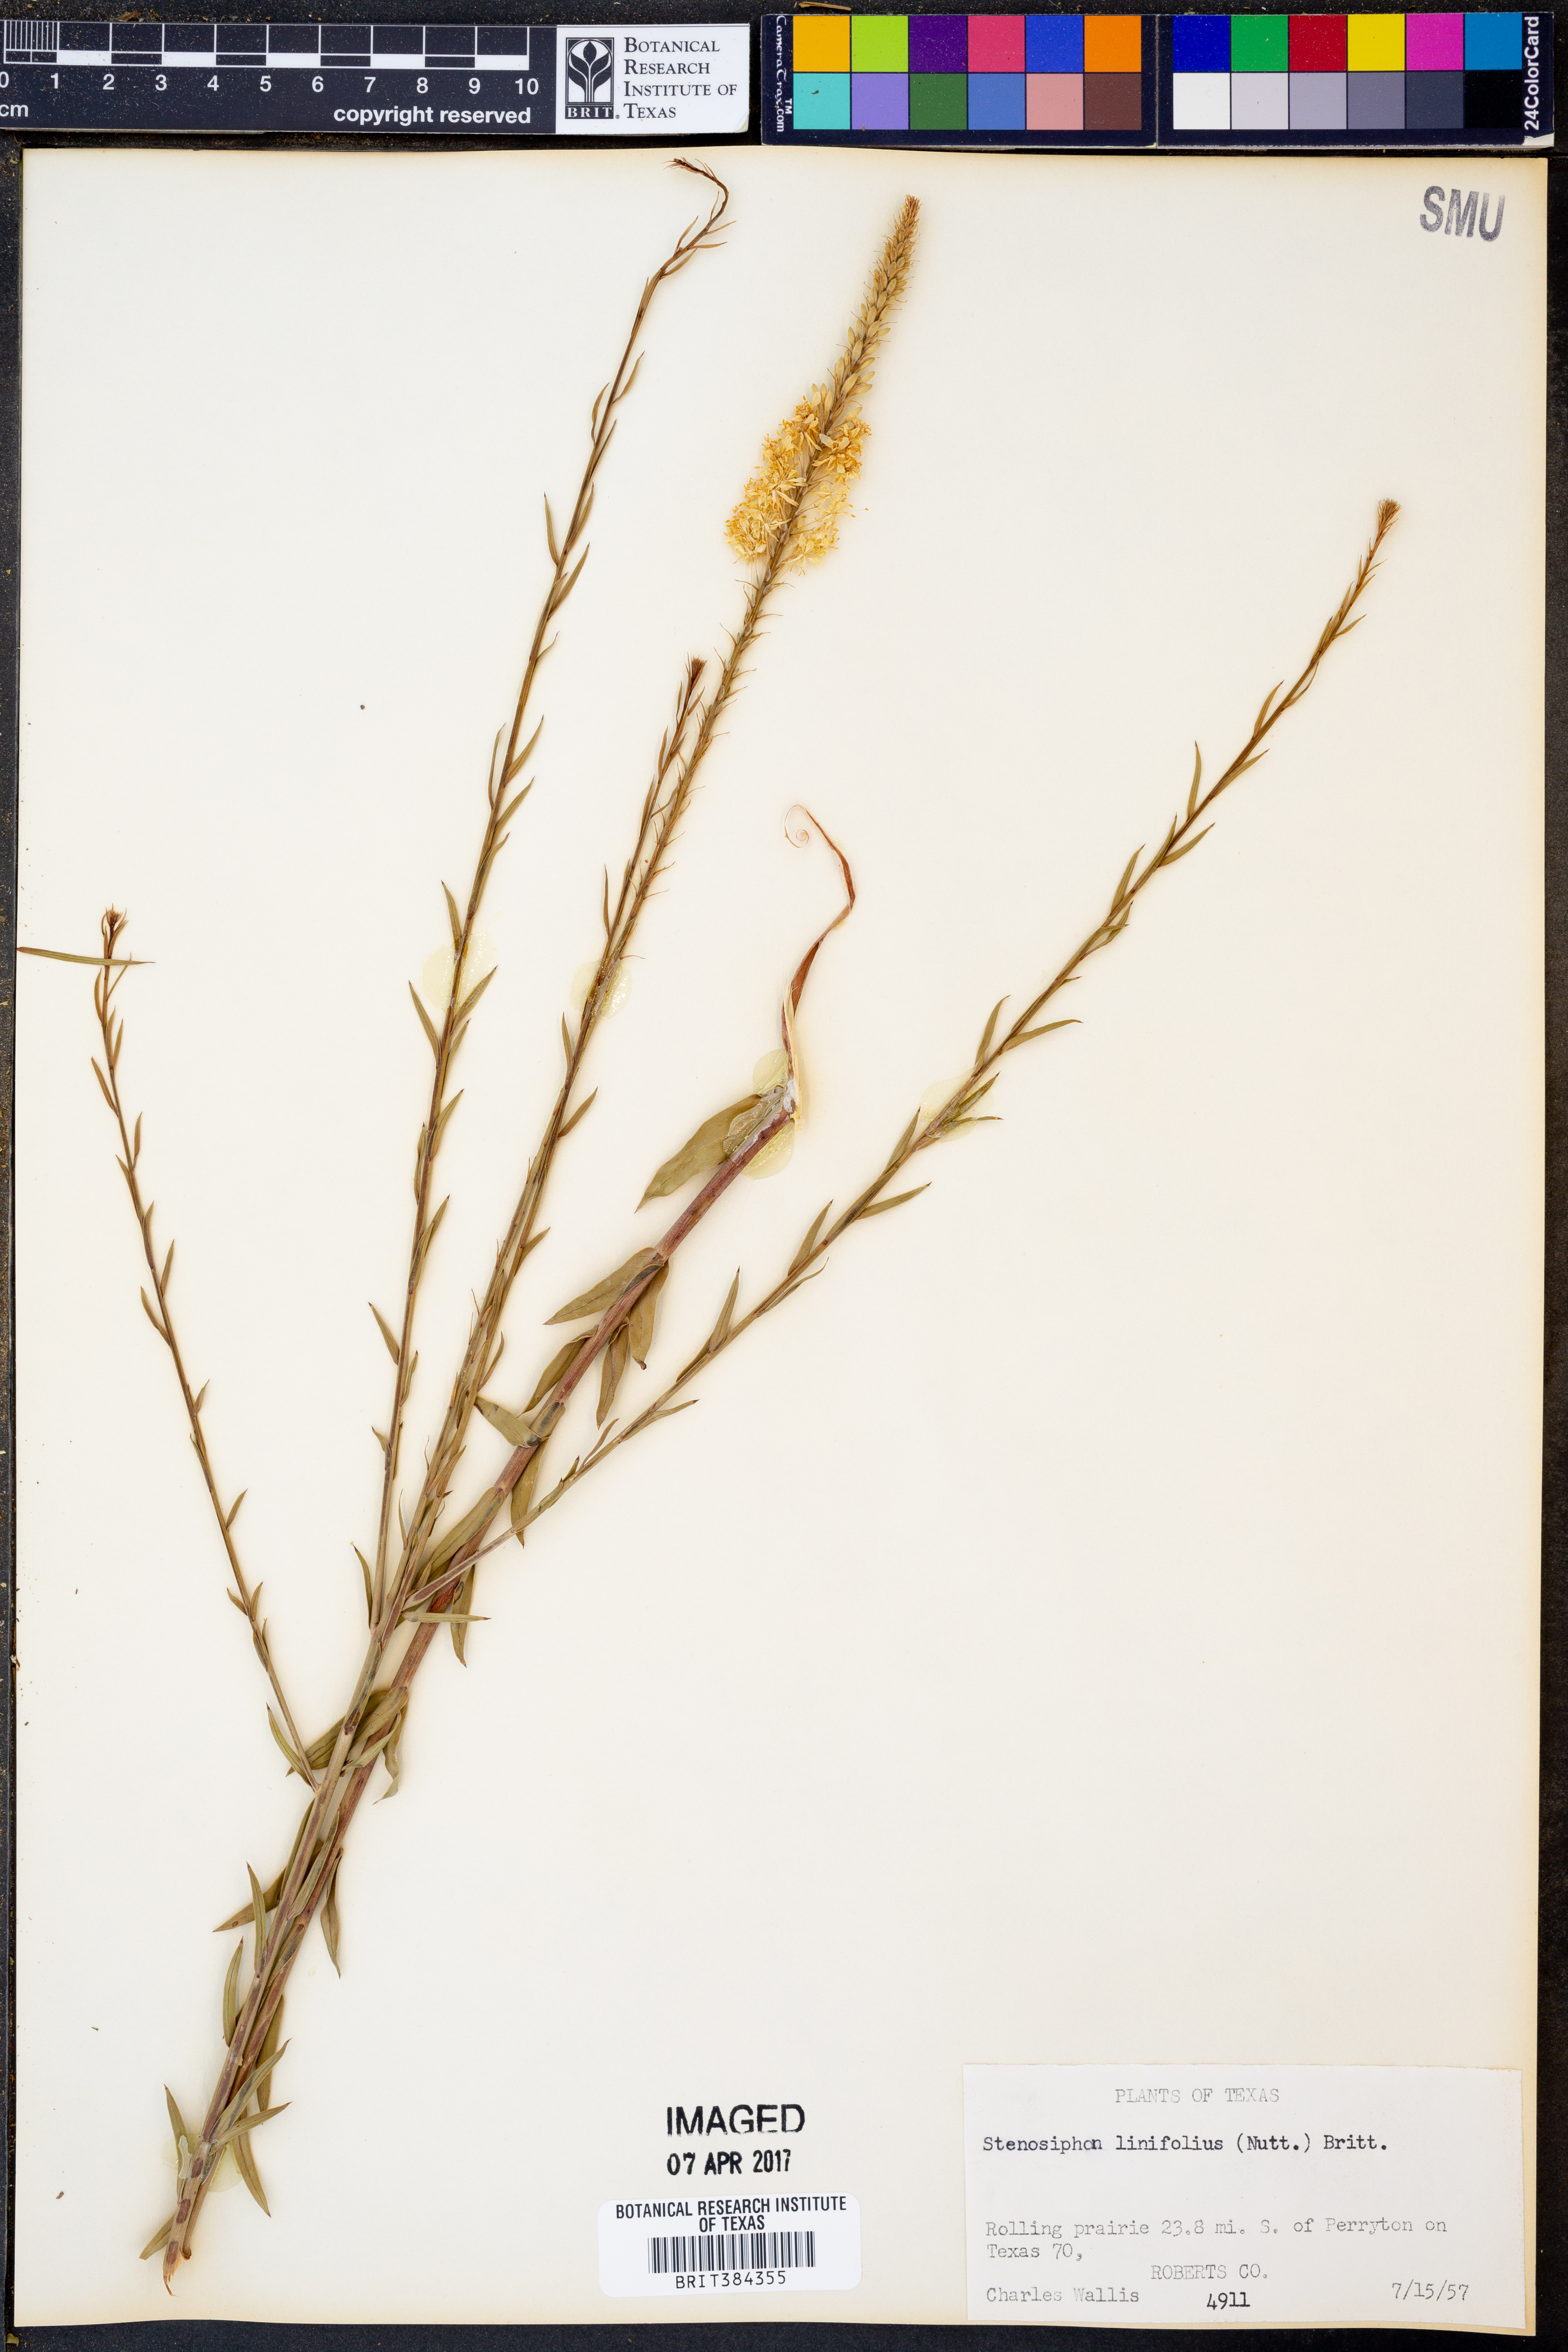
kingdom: Plantae
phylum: Tracheophyta
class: Magnoliopsida
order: Myrtales
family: Onagraceae
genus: Oenothera
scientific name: Oenothera glaucifolia
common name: False gaura
